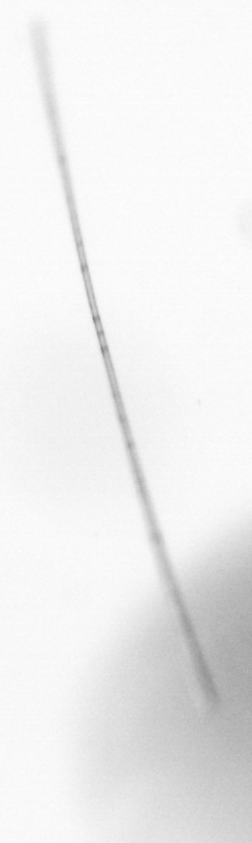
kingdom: Chromista
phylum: Ochrophyta
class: Bacillariophyceae
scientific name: Bacillariophyceae
